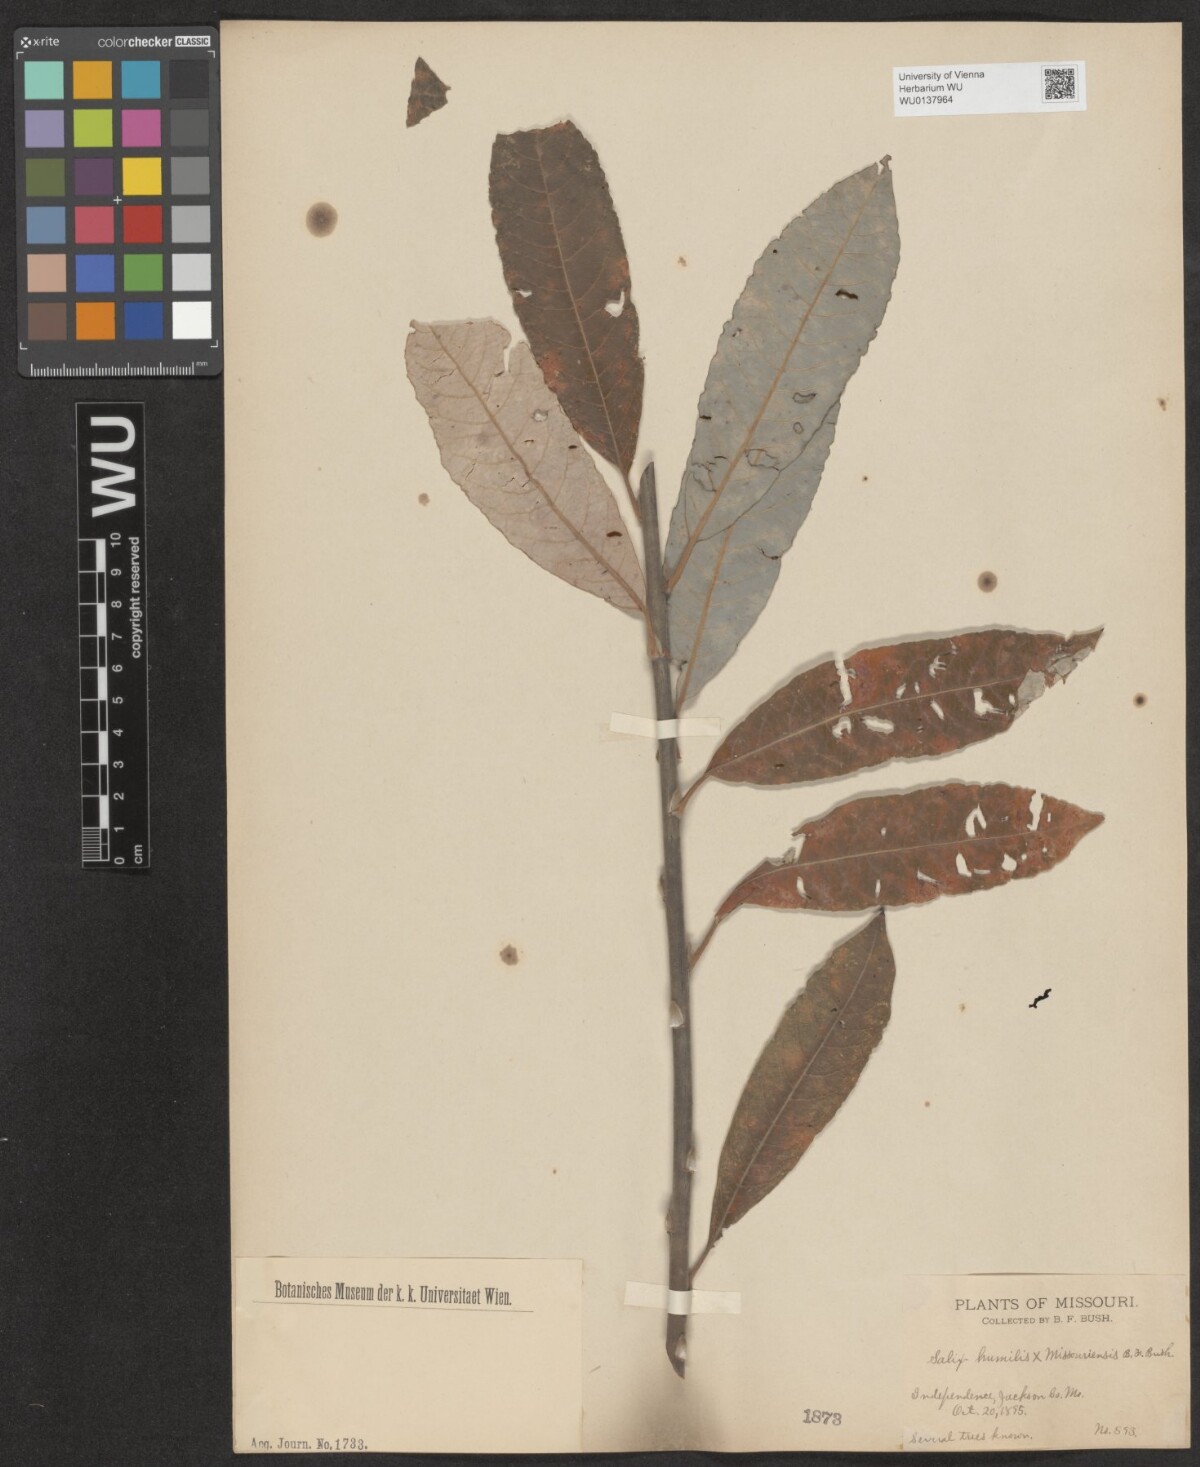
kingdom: Plantae
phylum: Tracheophyta
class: Magnoliopsida
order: Malpighiales
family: Salicaceae
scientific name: Salicaceae
